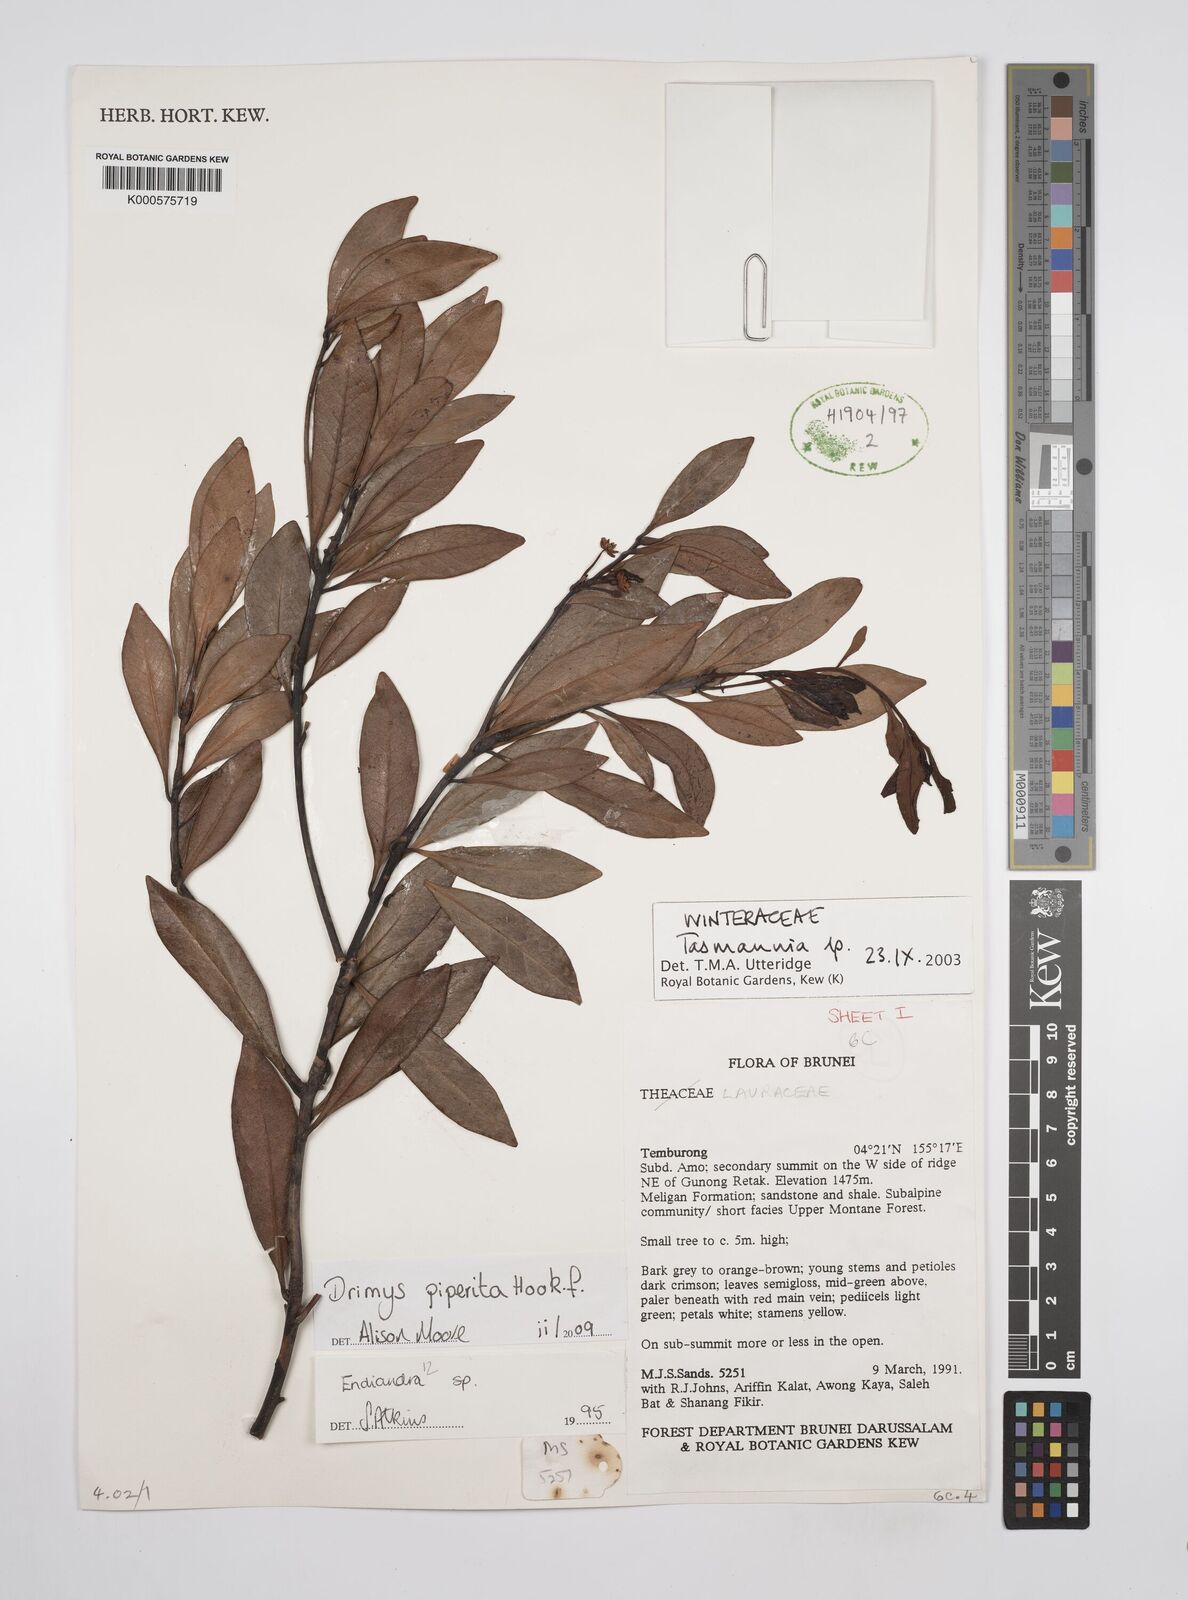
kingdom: Plantae
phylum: Tracheophyta
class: Magnoliopsida
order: Canellales
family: Winteraceae
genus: Drimys
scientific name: Drimys piperita
